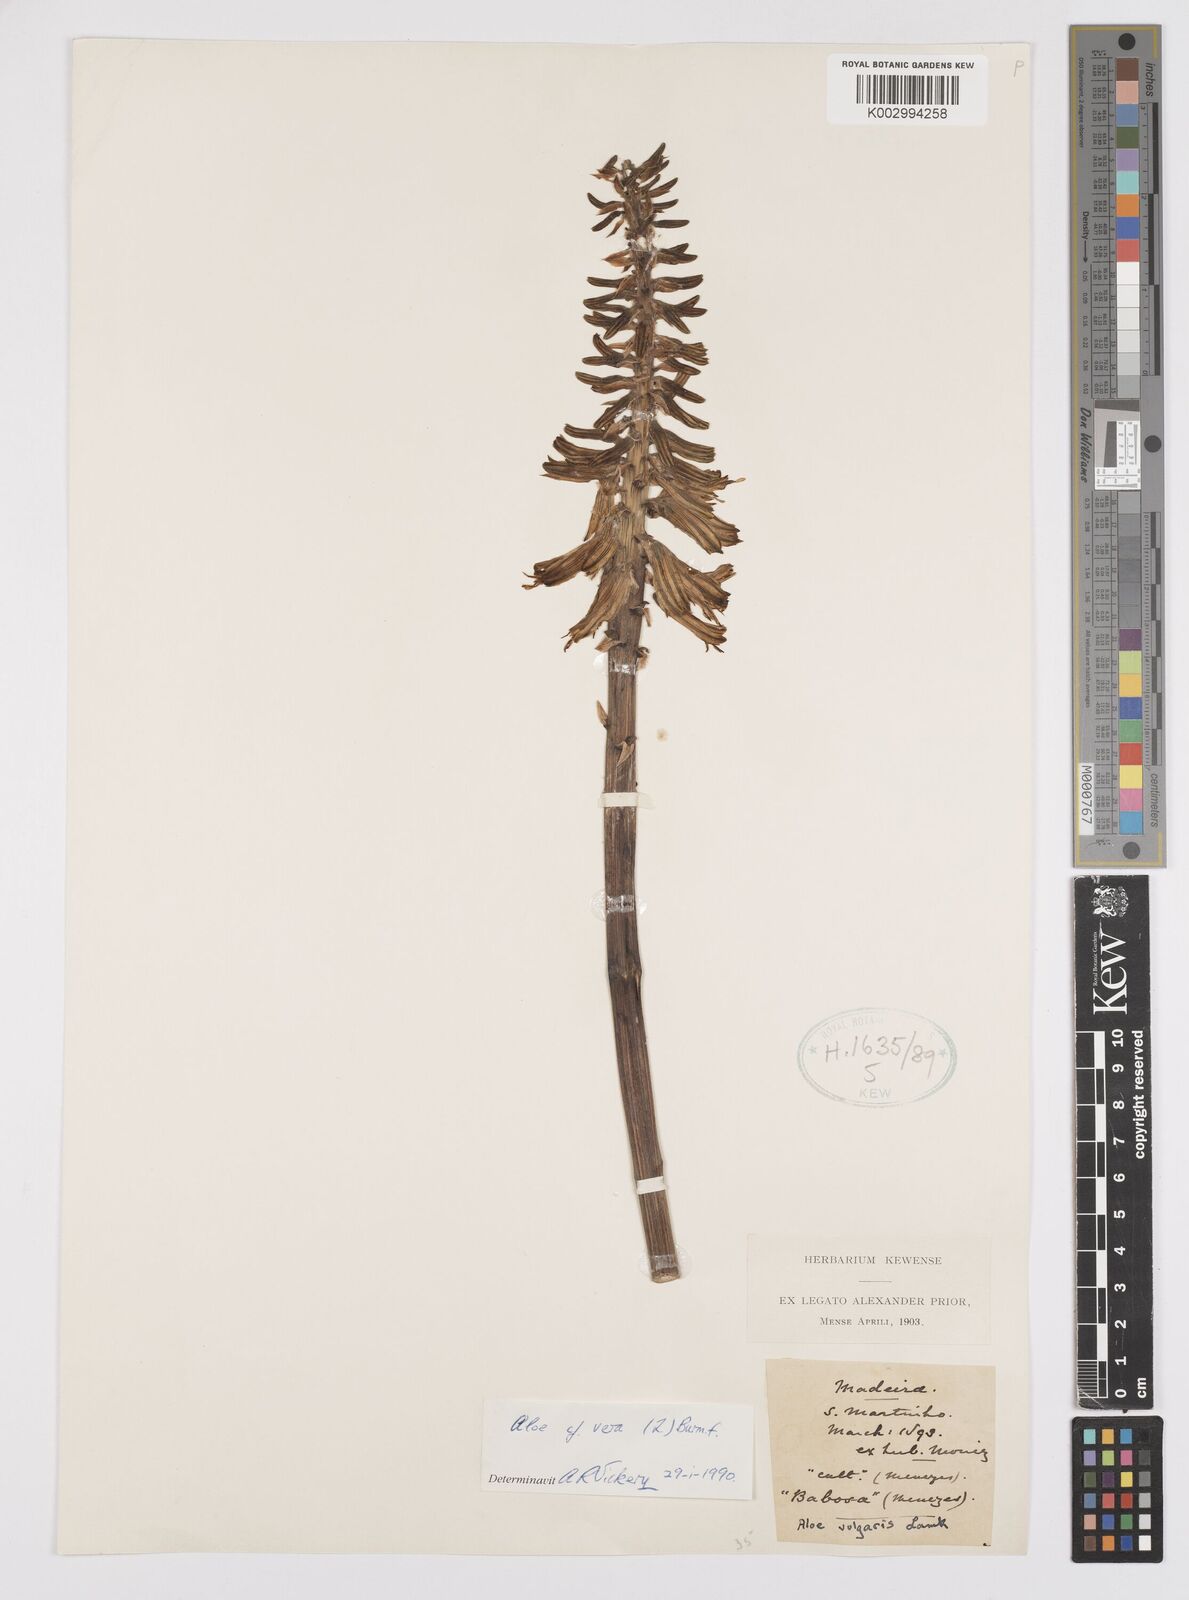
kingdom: Plantae
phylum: Tracheophyta
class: Liliopsida
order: Asparagales
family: Asphodelaceae
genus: Aloe
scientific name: Aloe vera
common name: Barbados aloe
